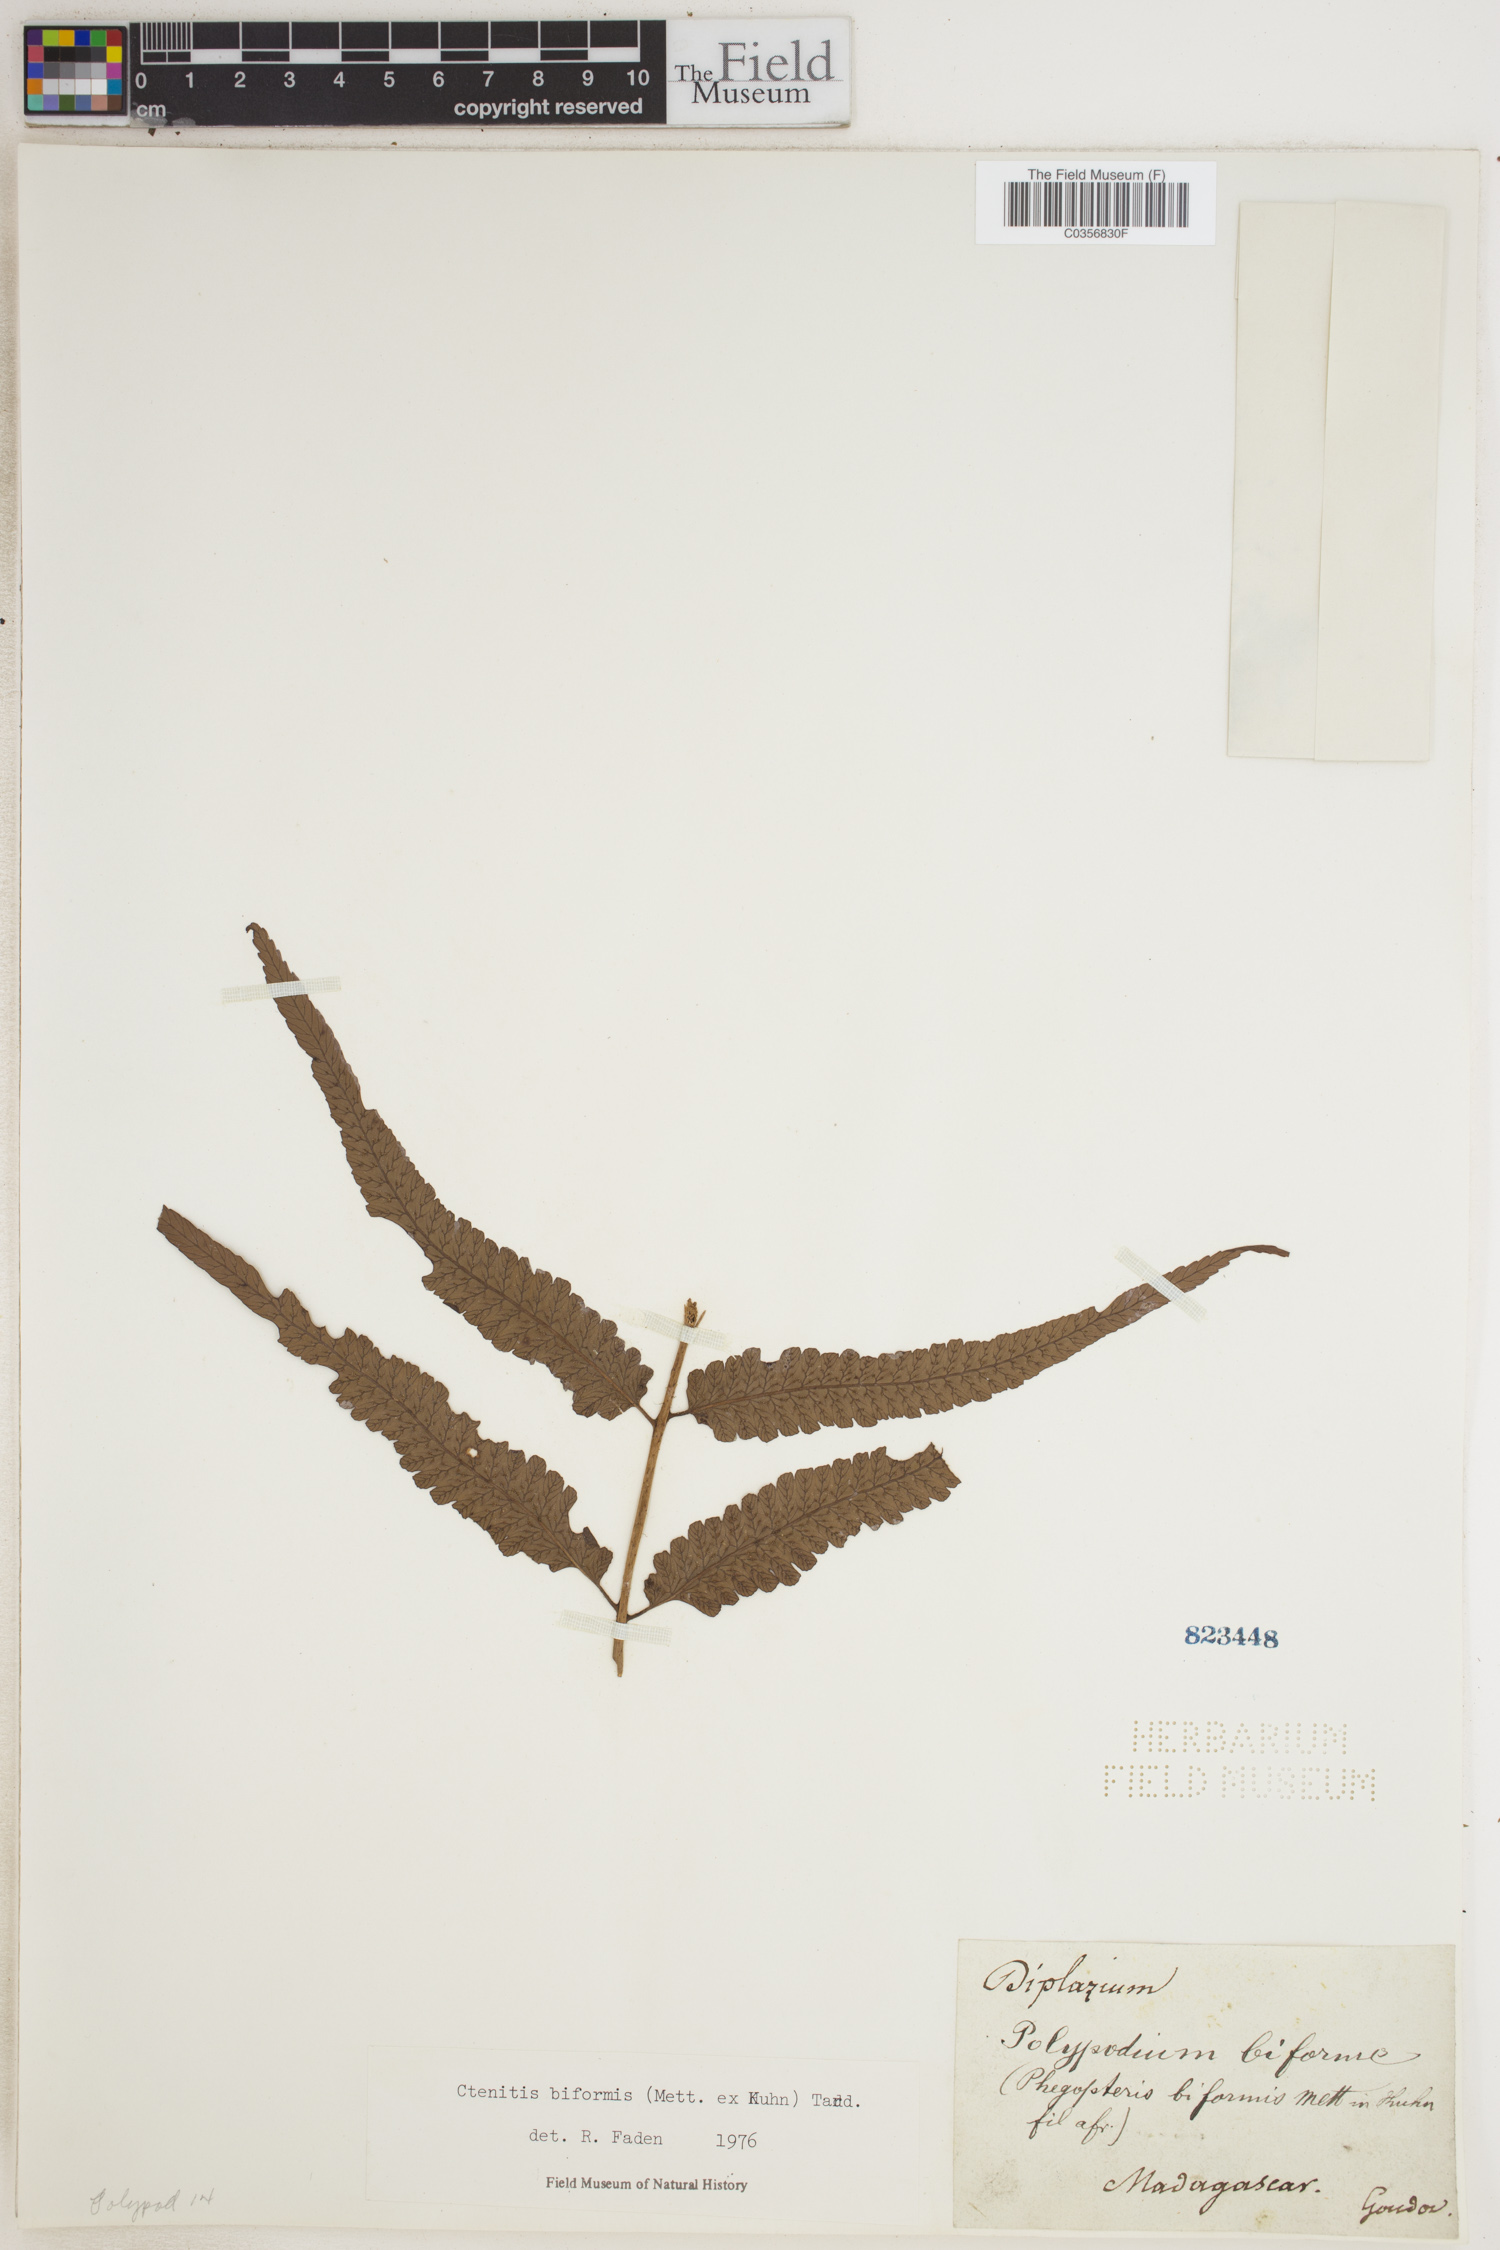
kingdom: Plantae
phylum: Tracheophyta
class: Polypodiopsida
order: Polypodiales
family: Dryopteridaceae
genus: Ctenitis
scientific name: Ctenitis biformis
